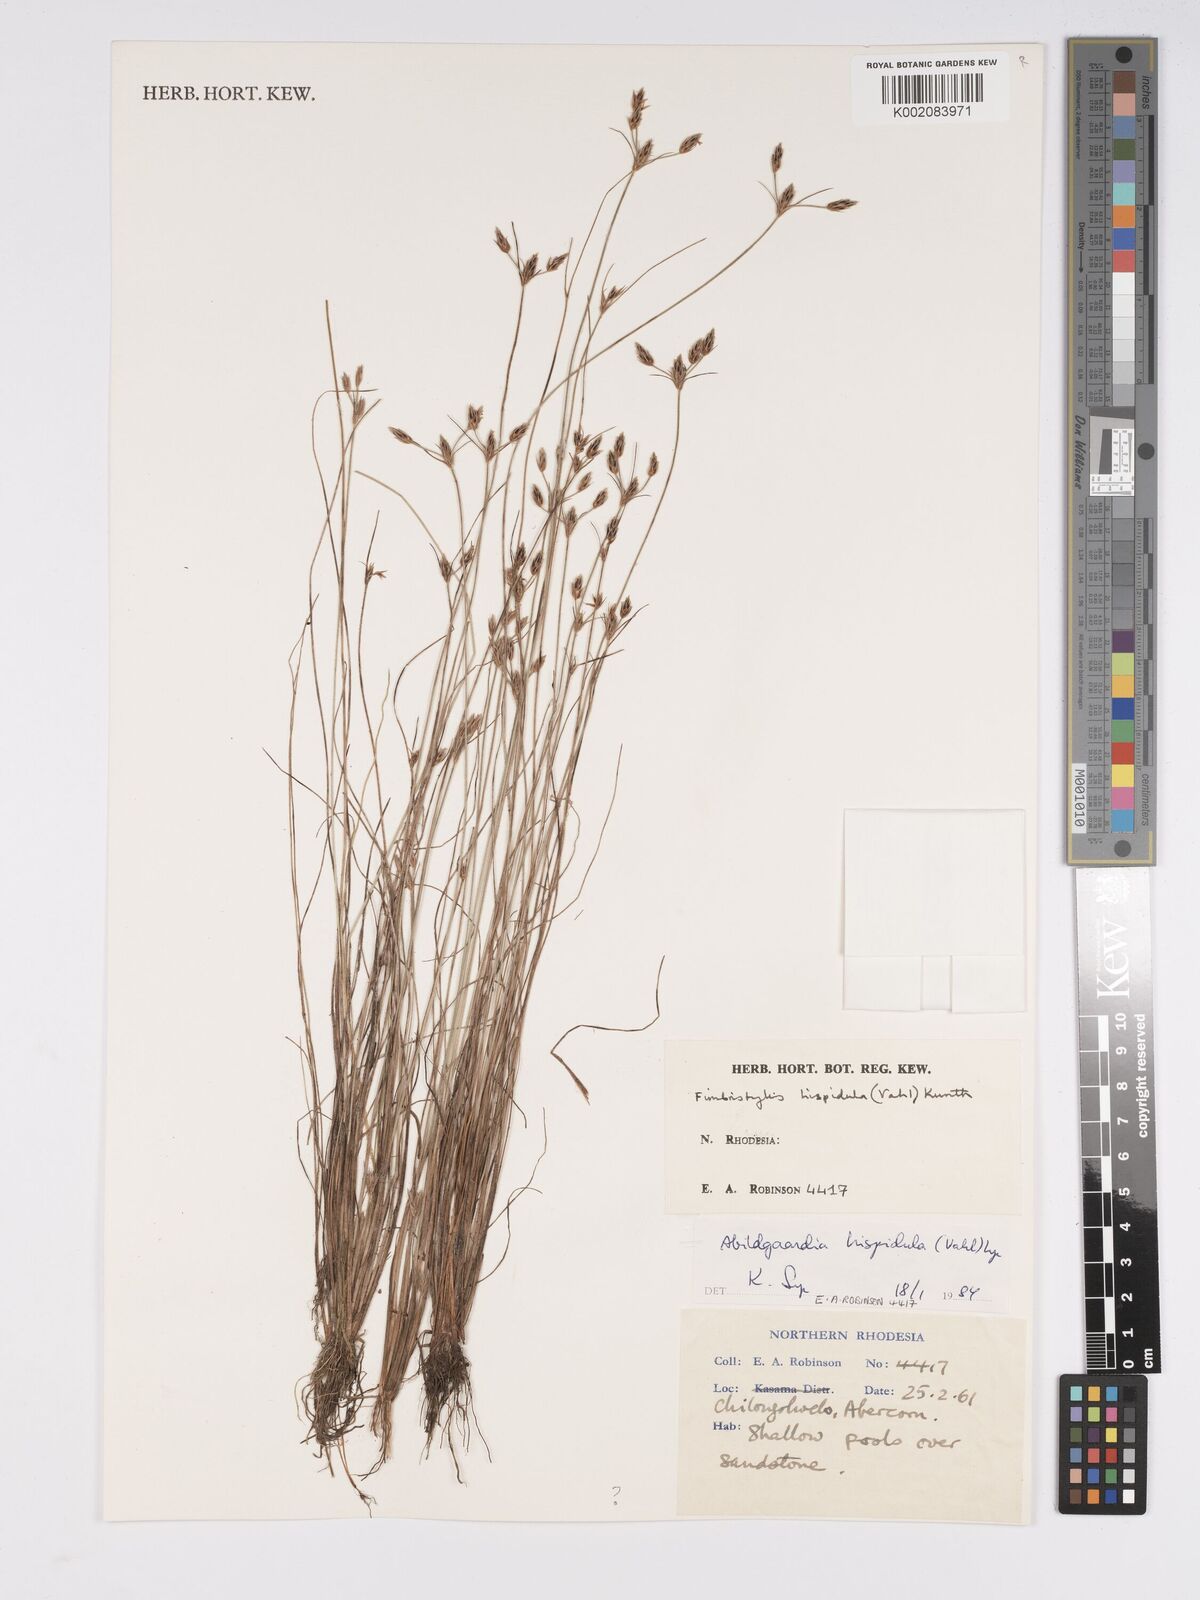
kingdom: Plantae
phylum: Tracheophyta
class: Liliopsida
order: Poales
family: Cyperaceae
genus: Bulbostylis
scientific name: Bulbostylis hispidula
